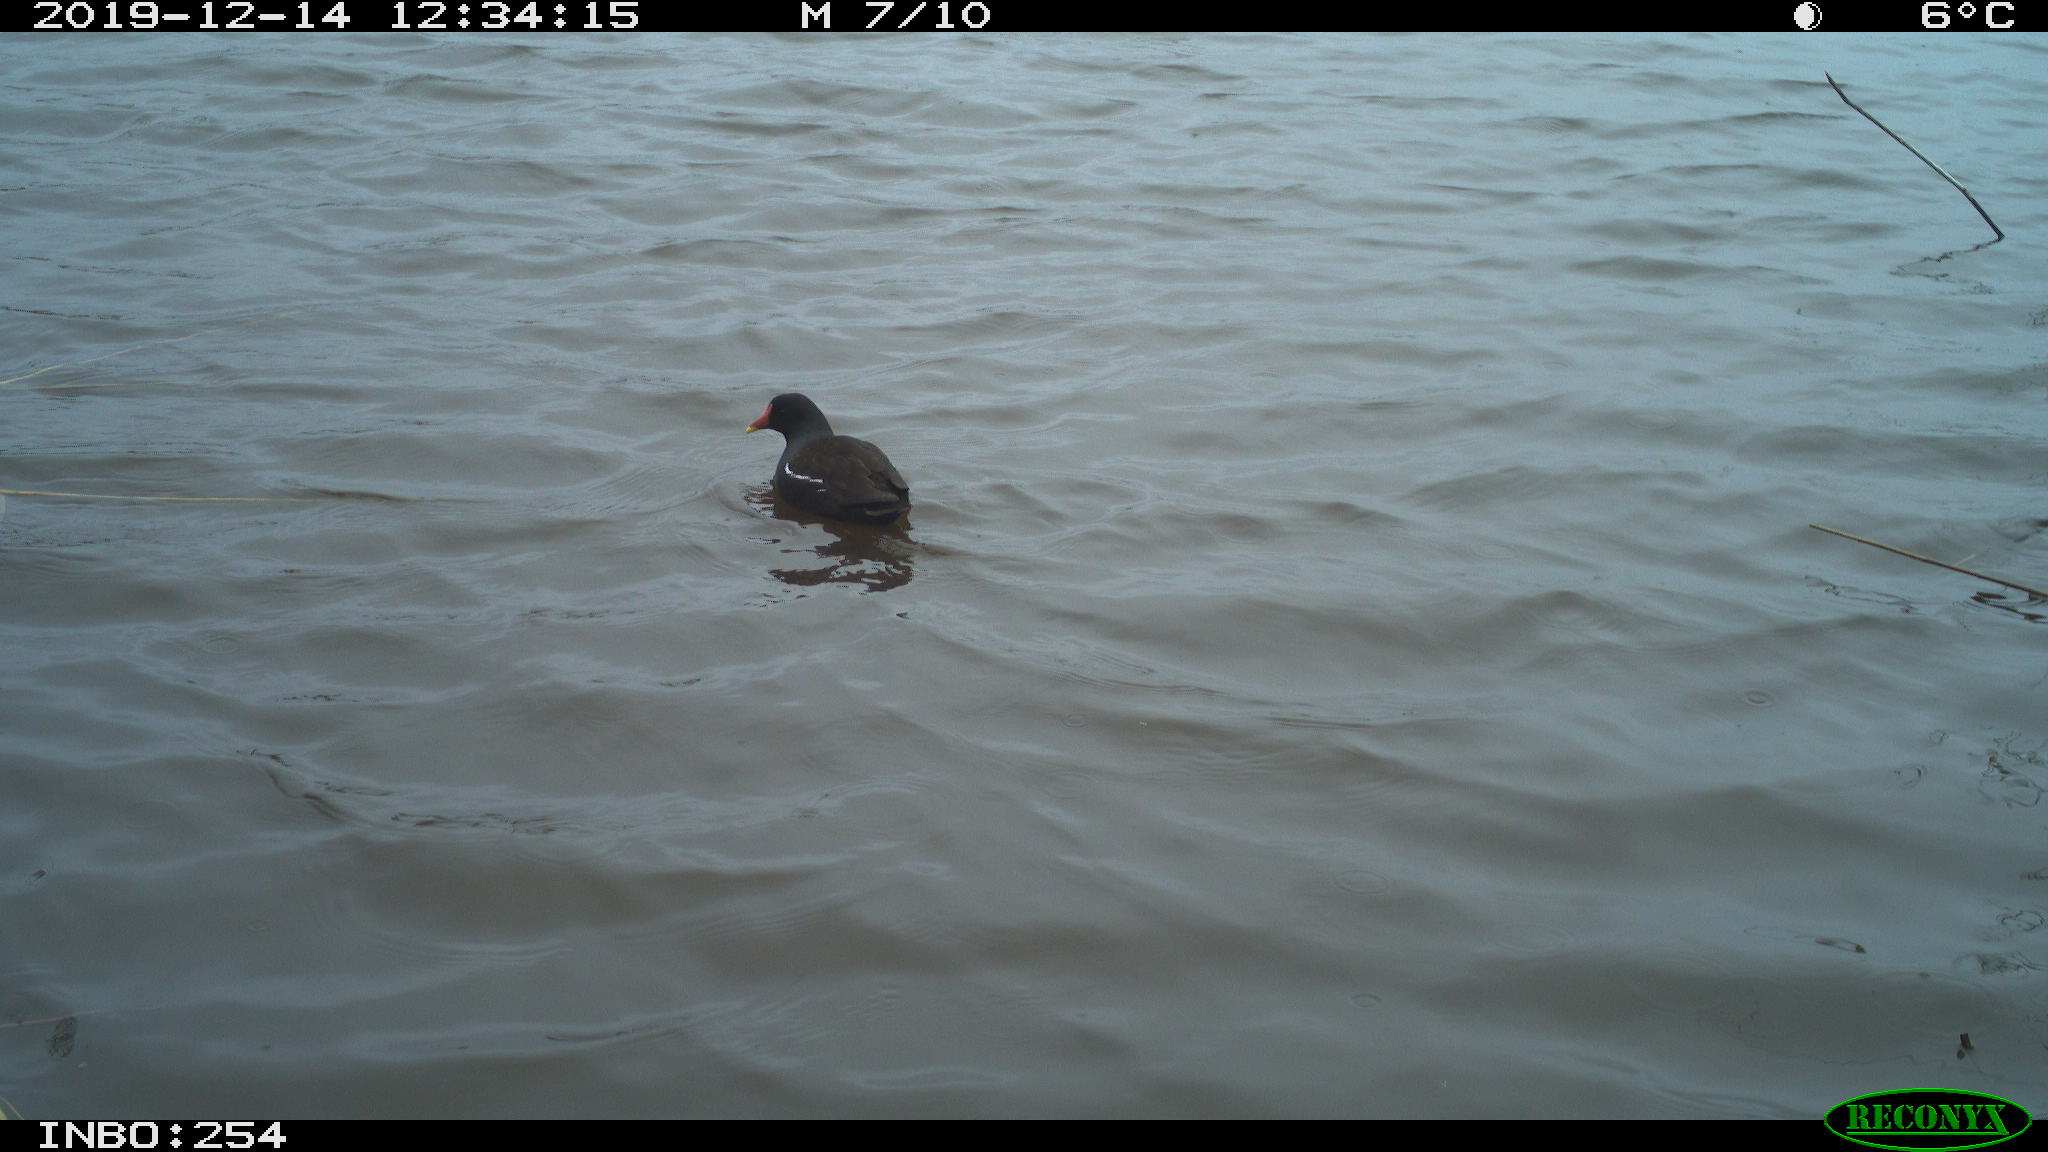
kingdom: Animalia
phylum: Chordata
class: Aves
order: Gruiformes
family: Rallidae
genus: Gallinula
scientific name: Gallinula chloropus
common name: Common moorhen
